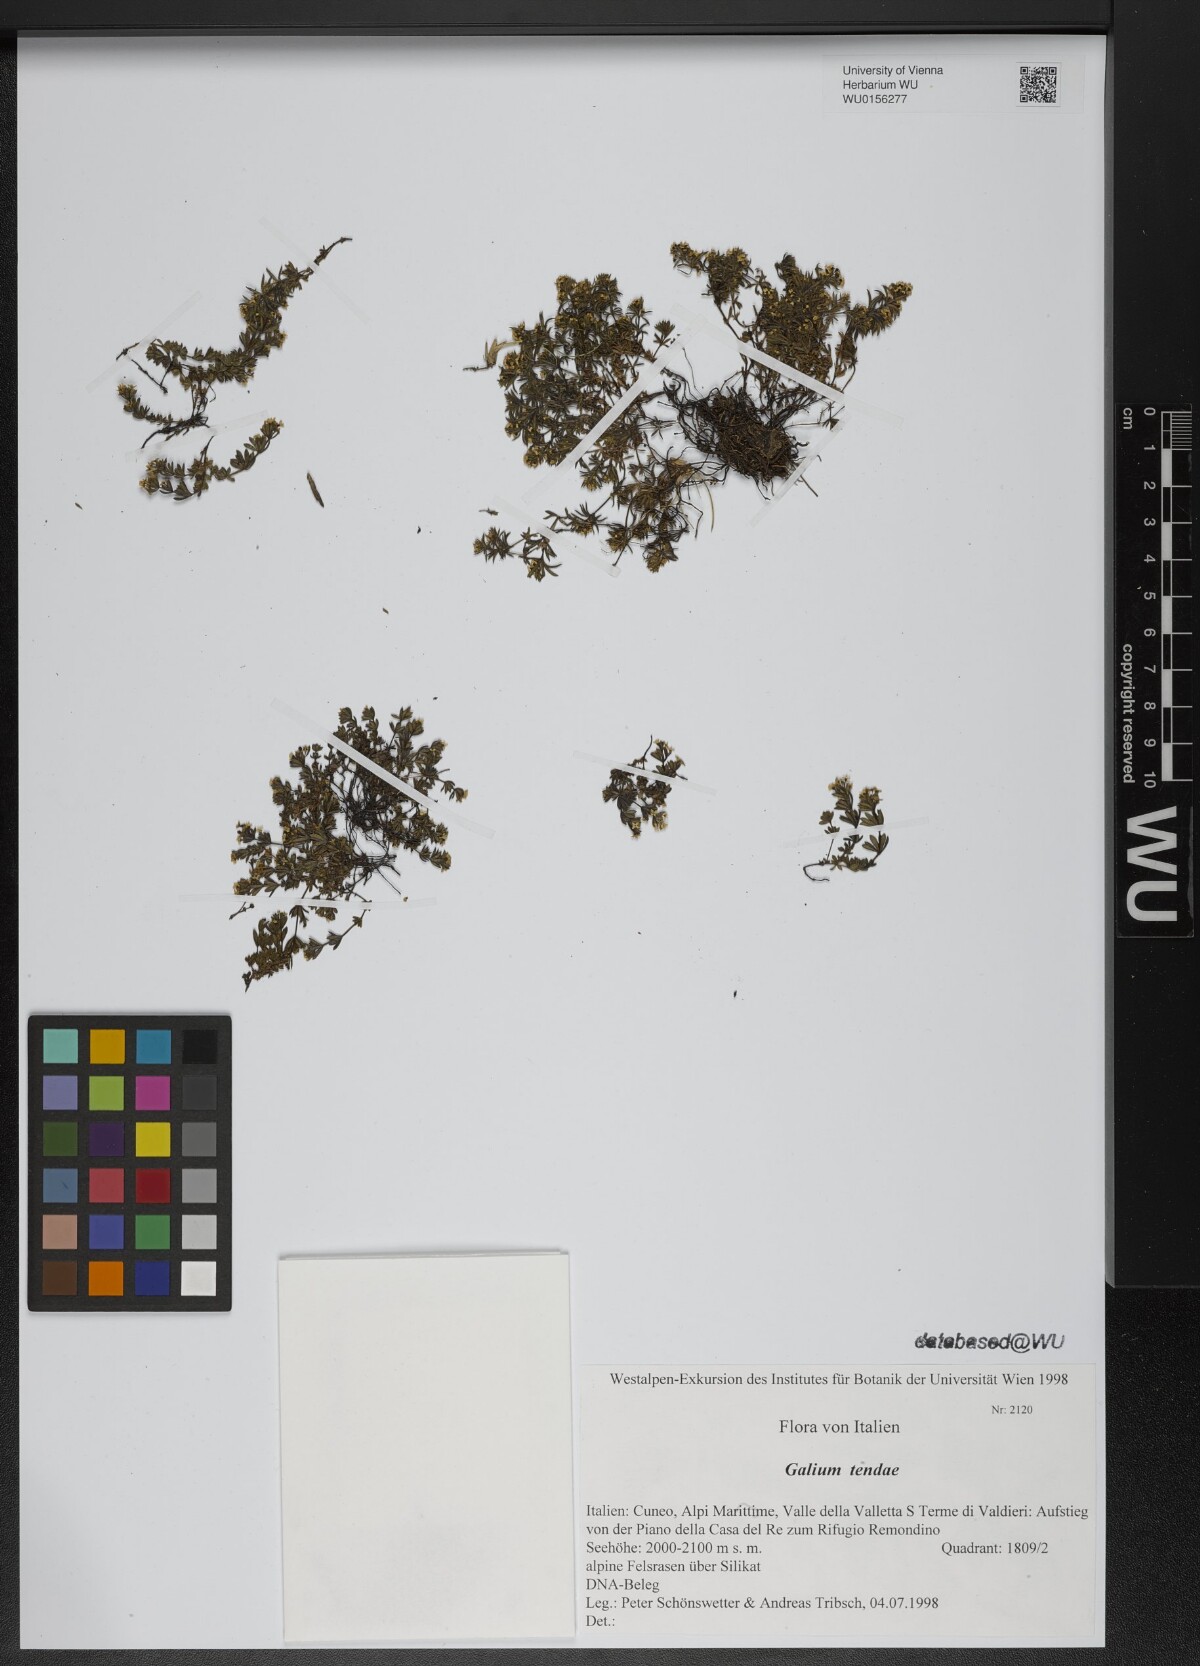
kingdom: Plantae
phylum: Tracheophyta
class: Magnoliopsida
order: Gentianales
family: Rubiaceae
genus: Galium
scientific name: Galium tendae
